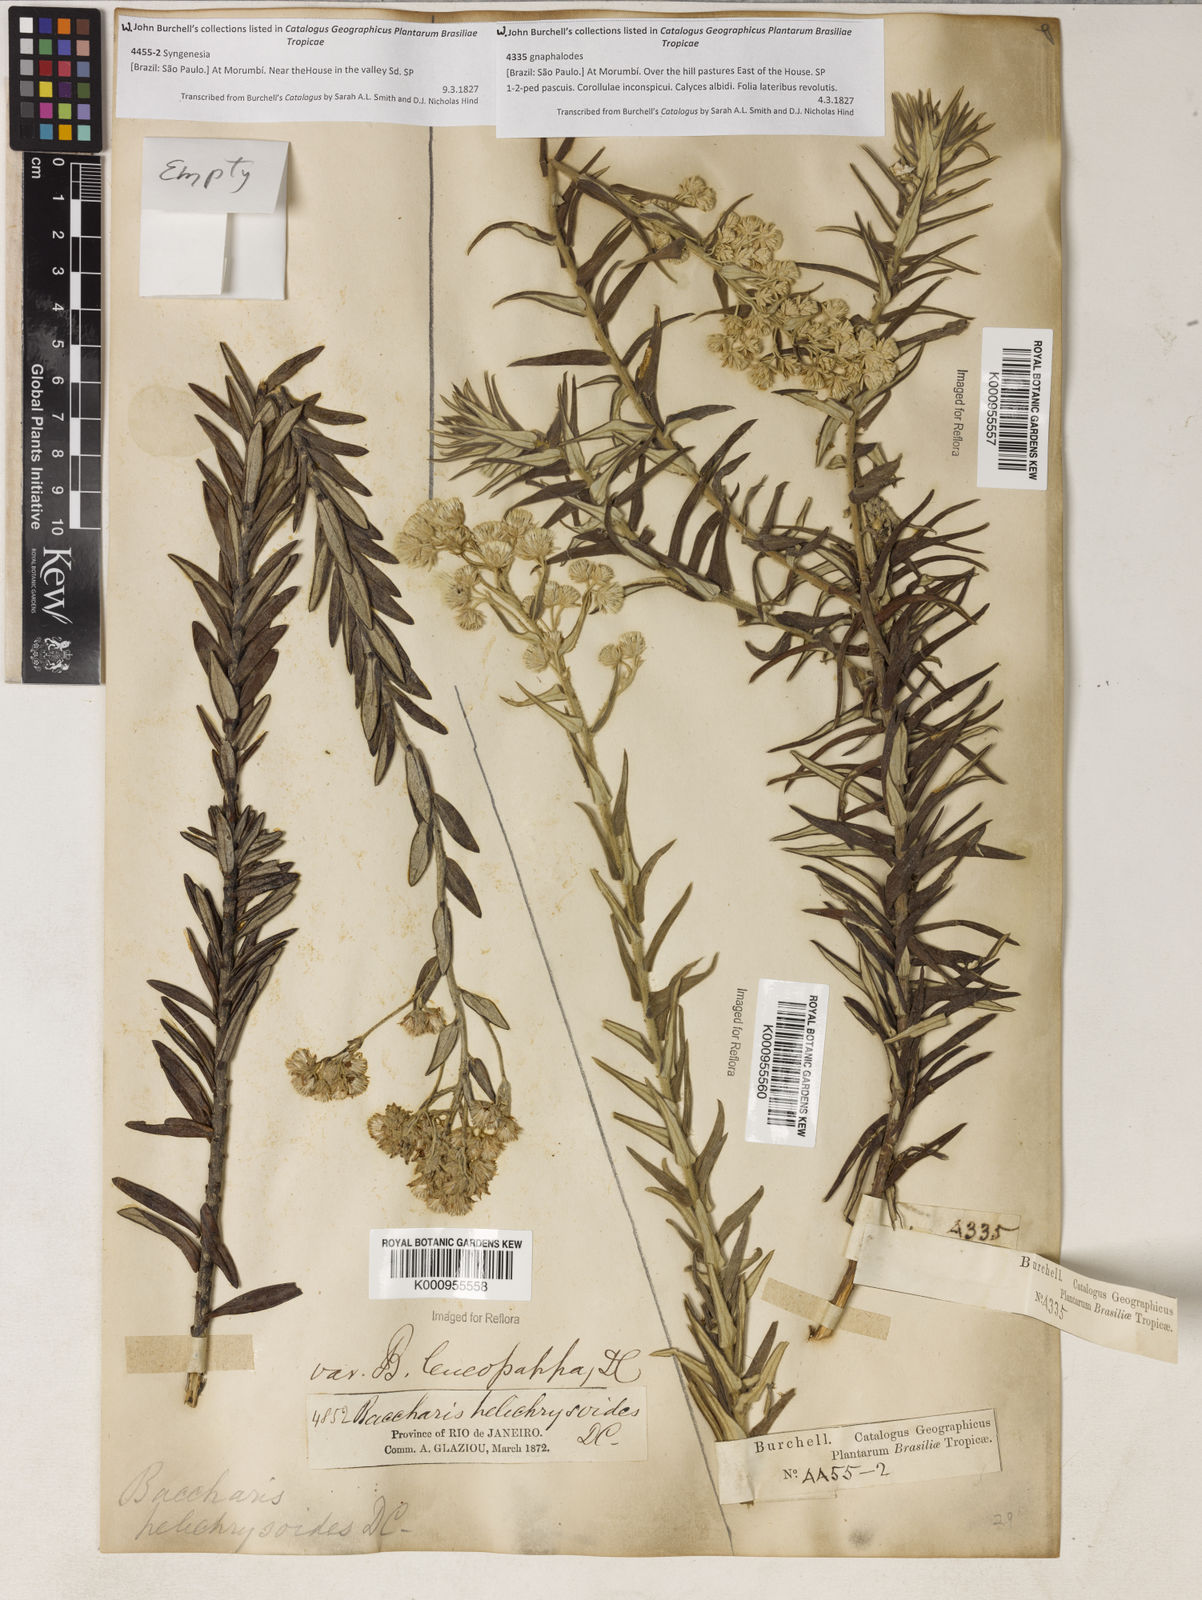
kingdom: Plantae
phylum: Tracheophyta
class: Magnoliopsida
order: Asterales
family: Asteraceae
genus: Baccharis
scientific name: Baccharis helichrysoides
